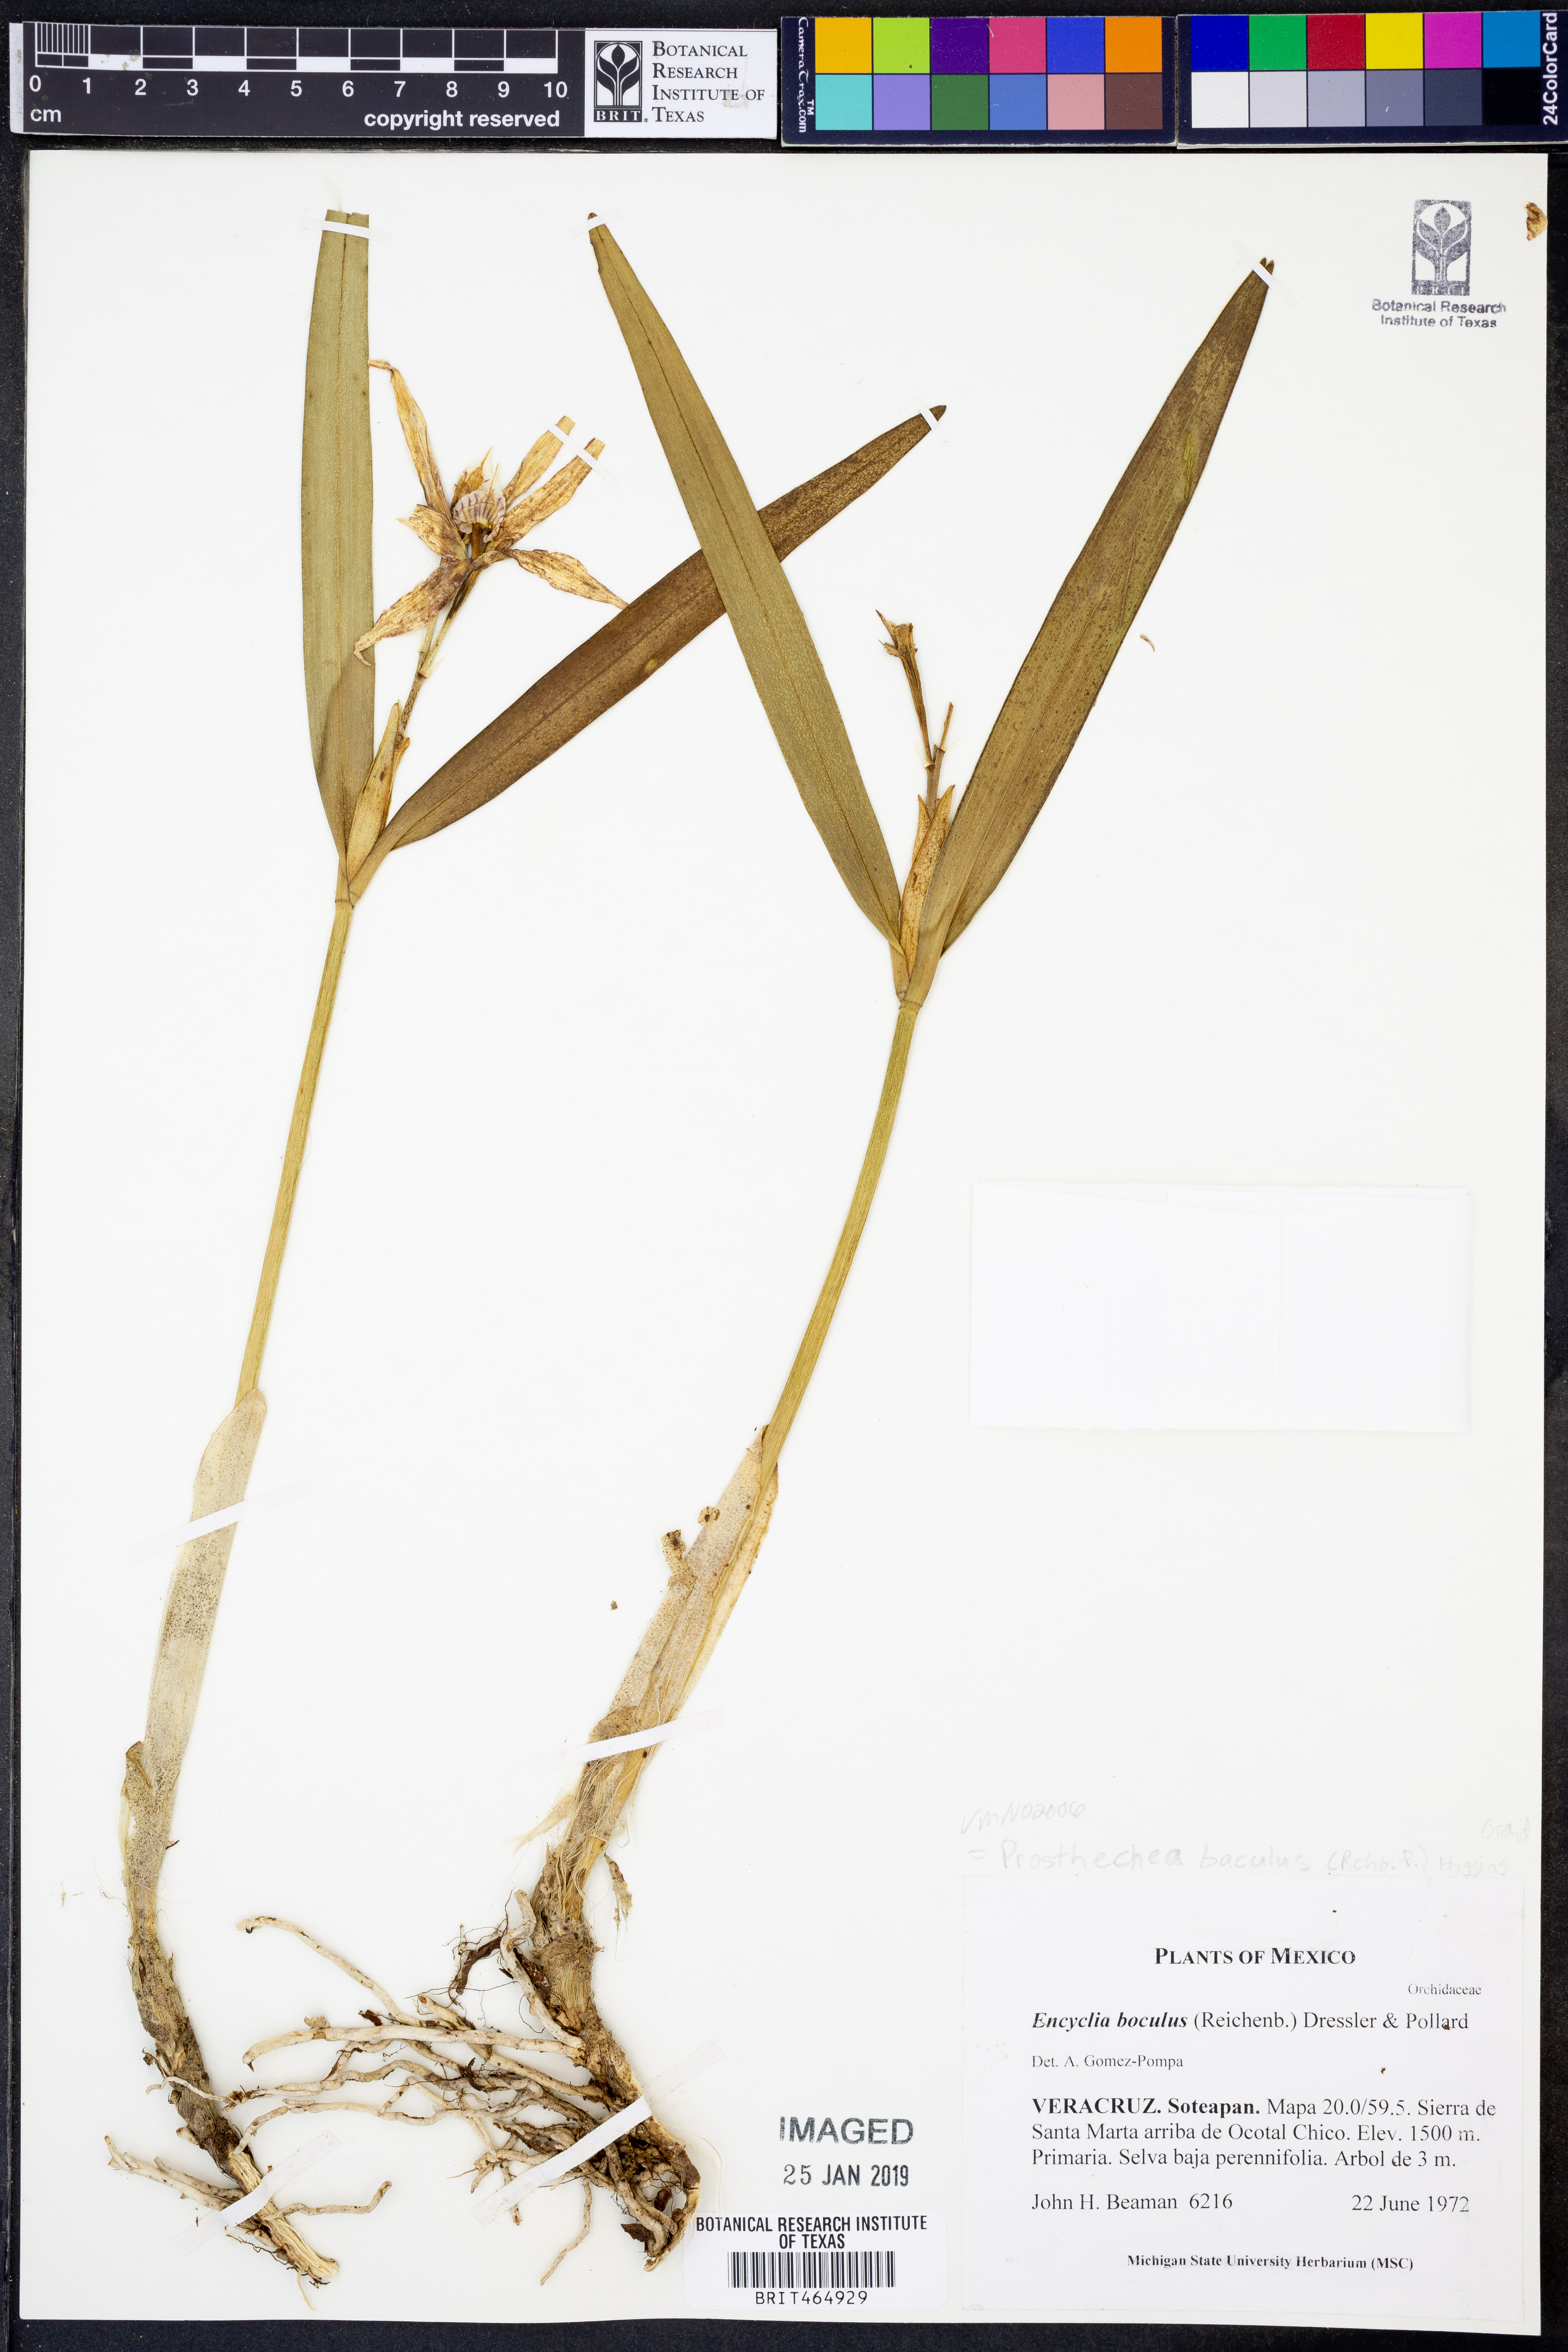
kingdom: Plantae
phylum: Tracheophyta
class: Liliopsida
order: Asparagales
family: Orchidaceae
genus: Prosthechea
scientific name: Prosthechea baculus
